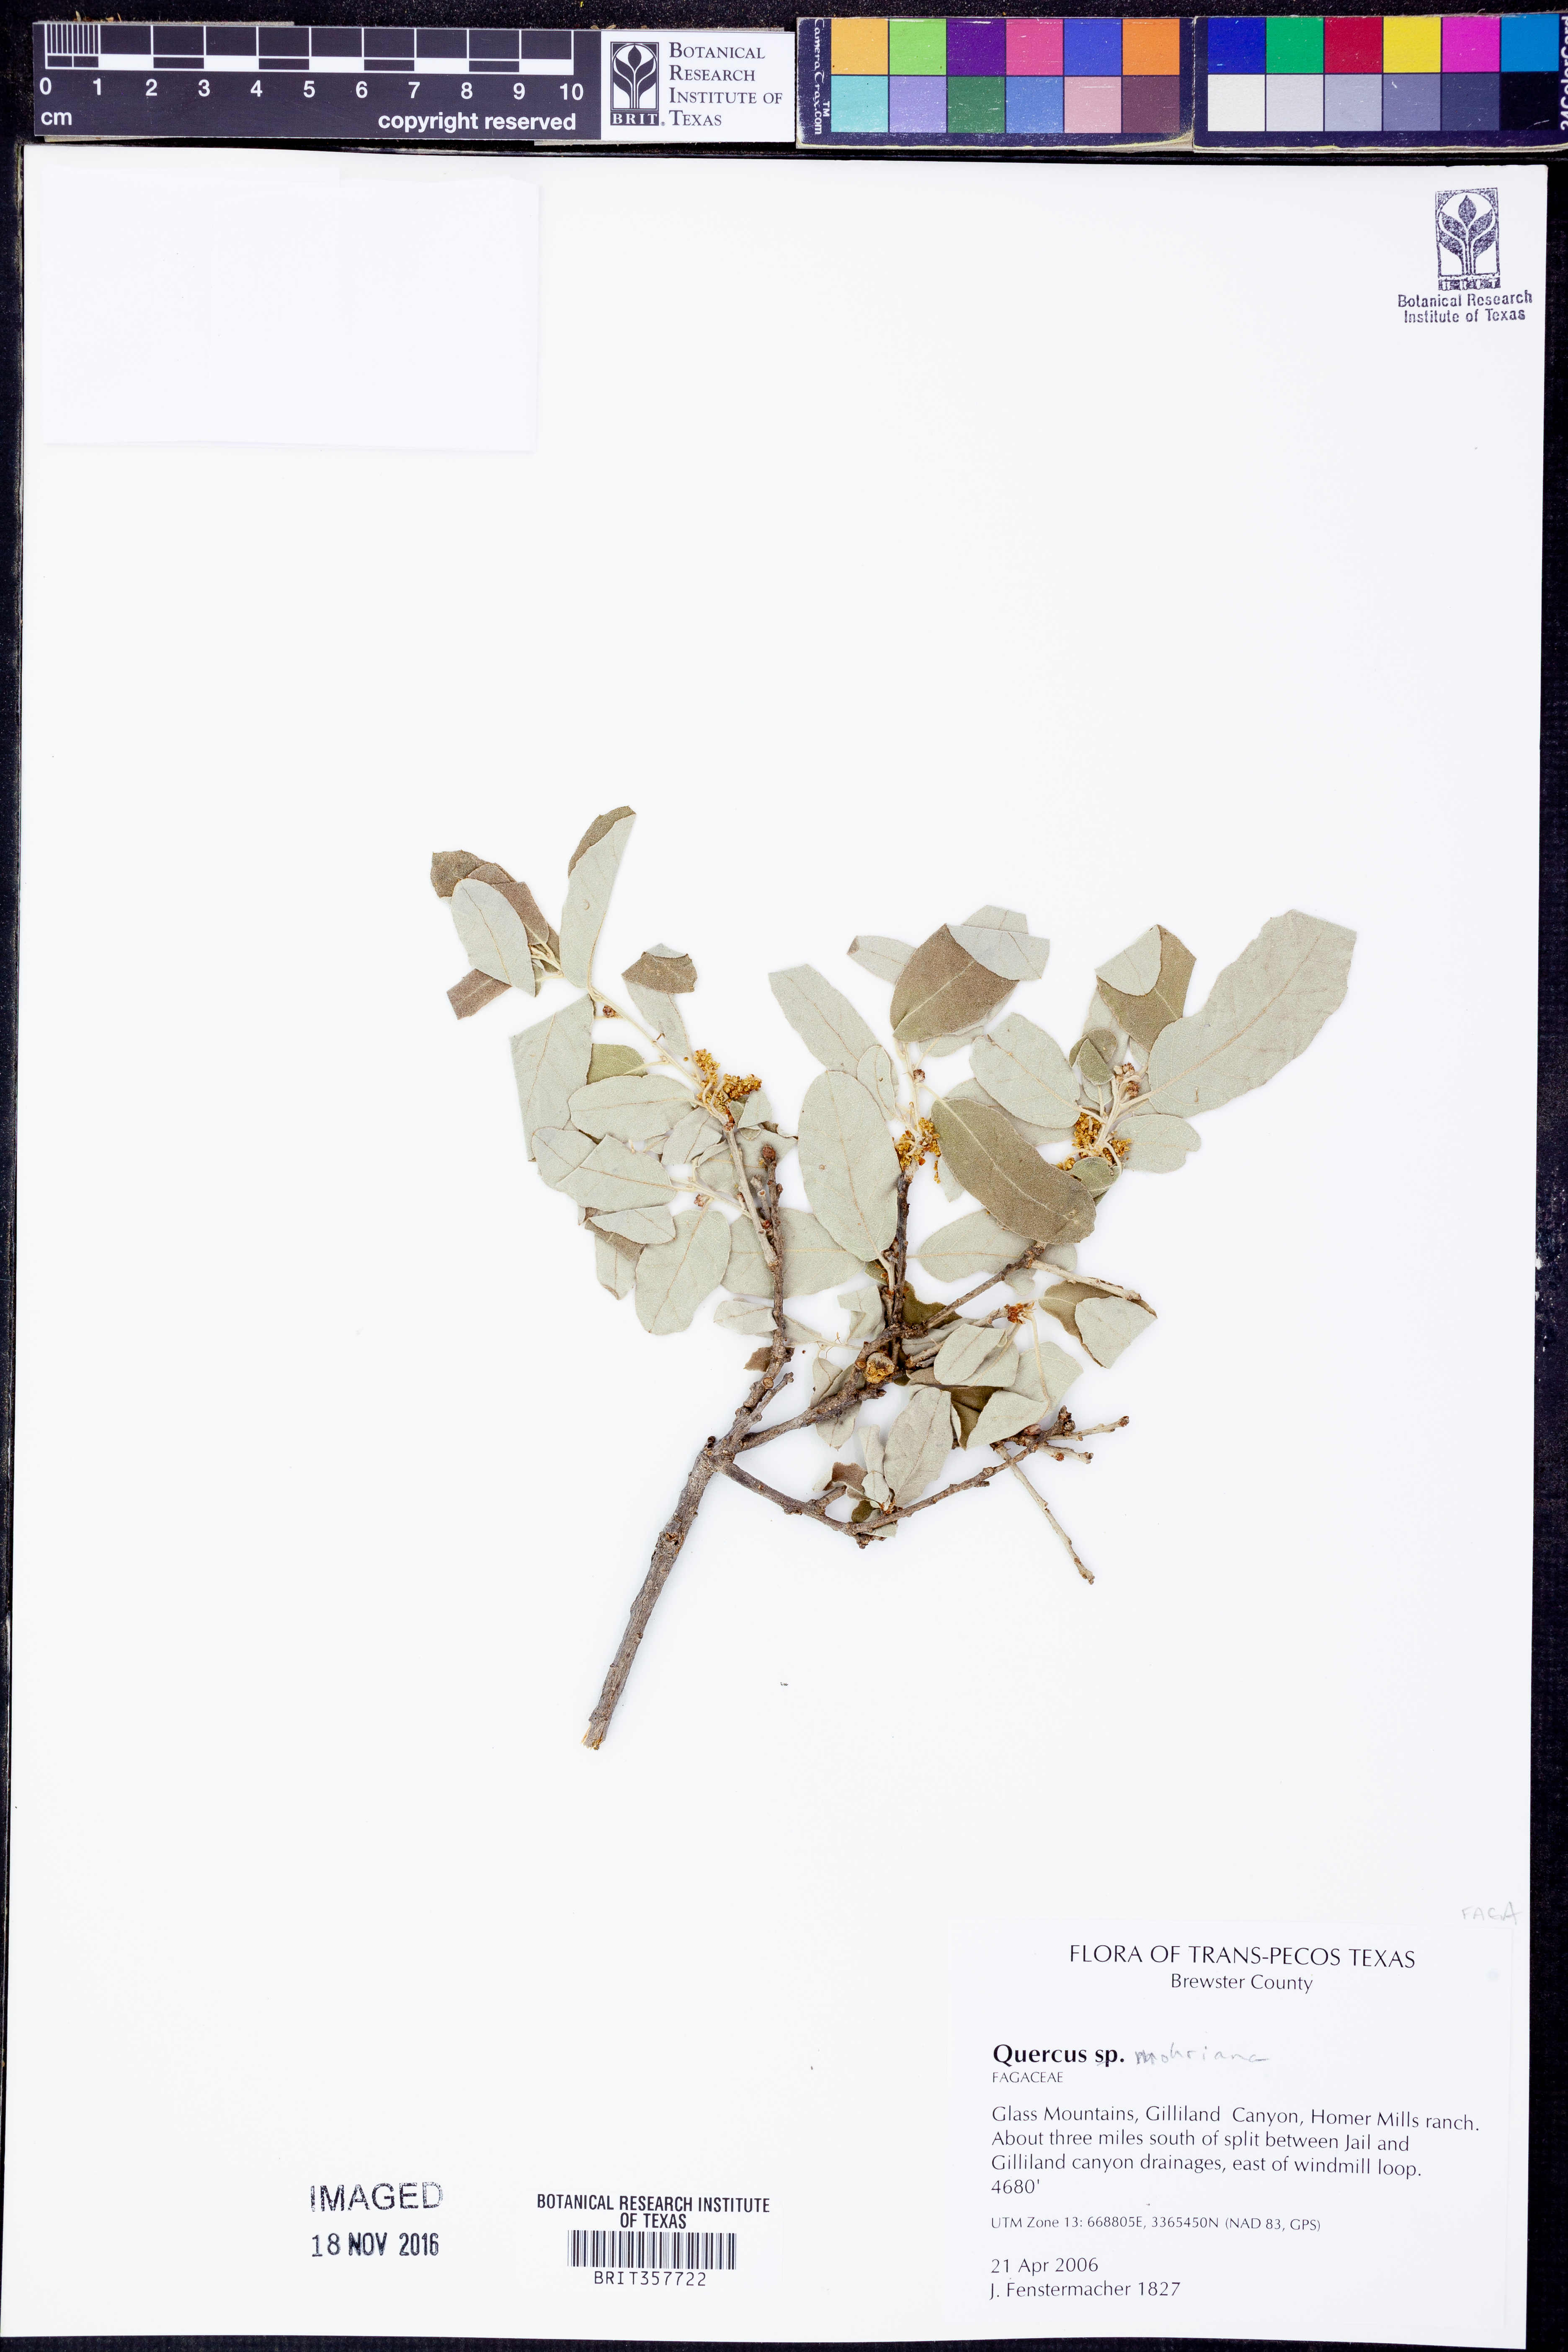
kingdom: Plantae
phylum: Tracheophyta
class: Magnoliopsida
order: Fagales
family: Fagaceae
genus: Quercus
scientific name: Quercus mohriana
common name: Mohr oak
